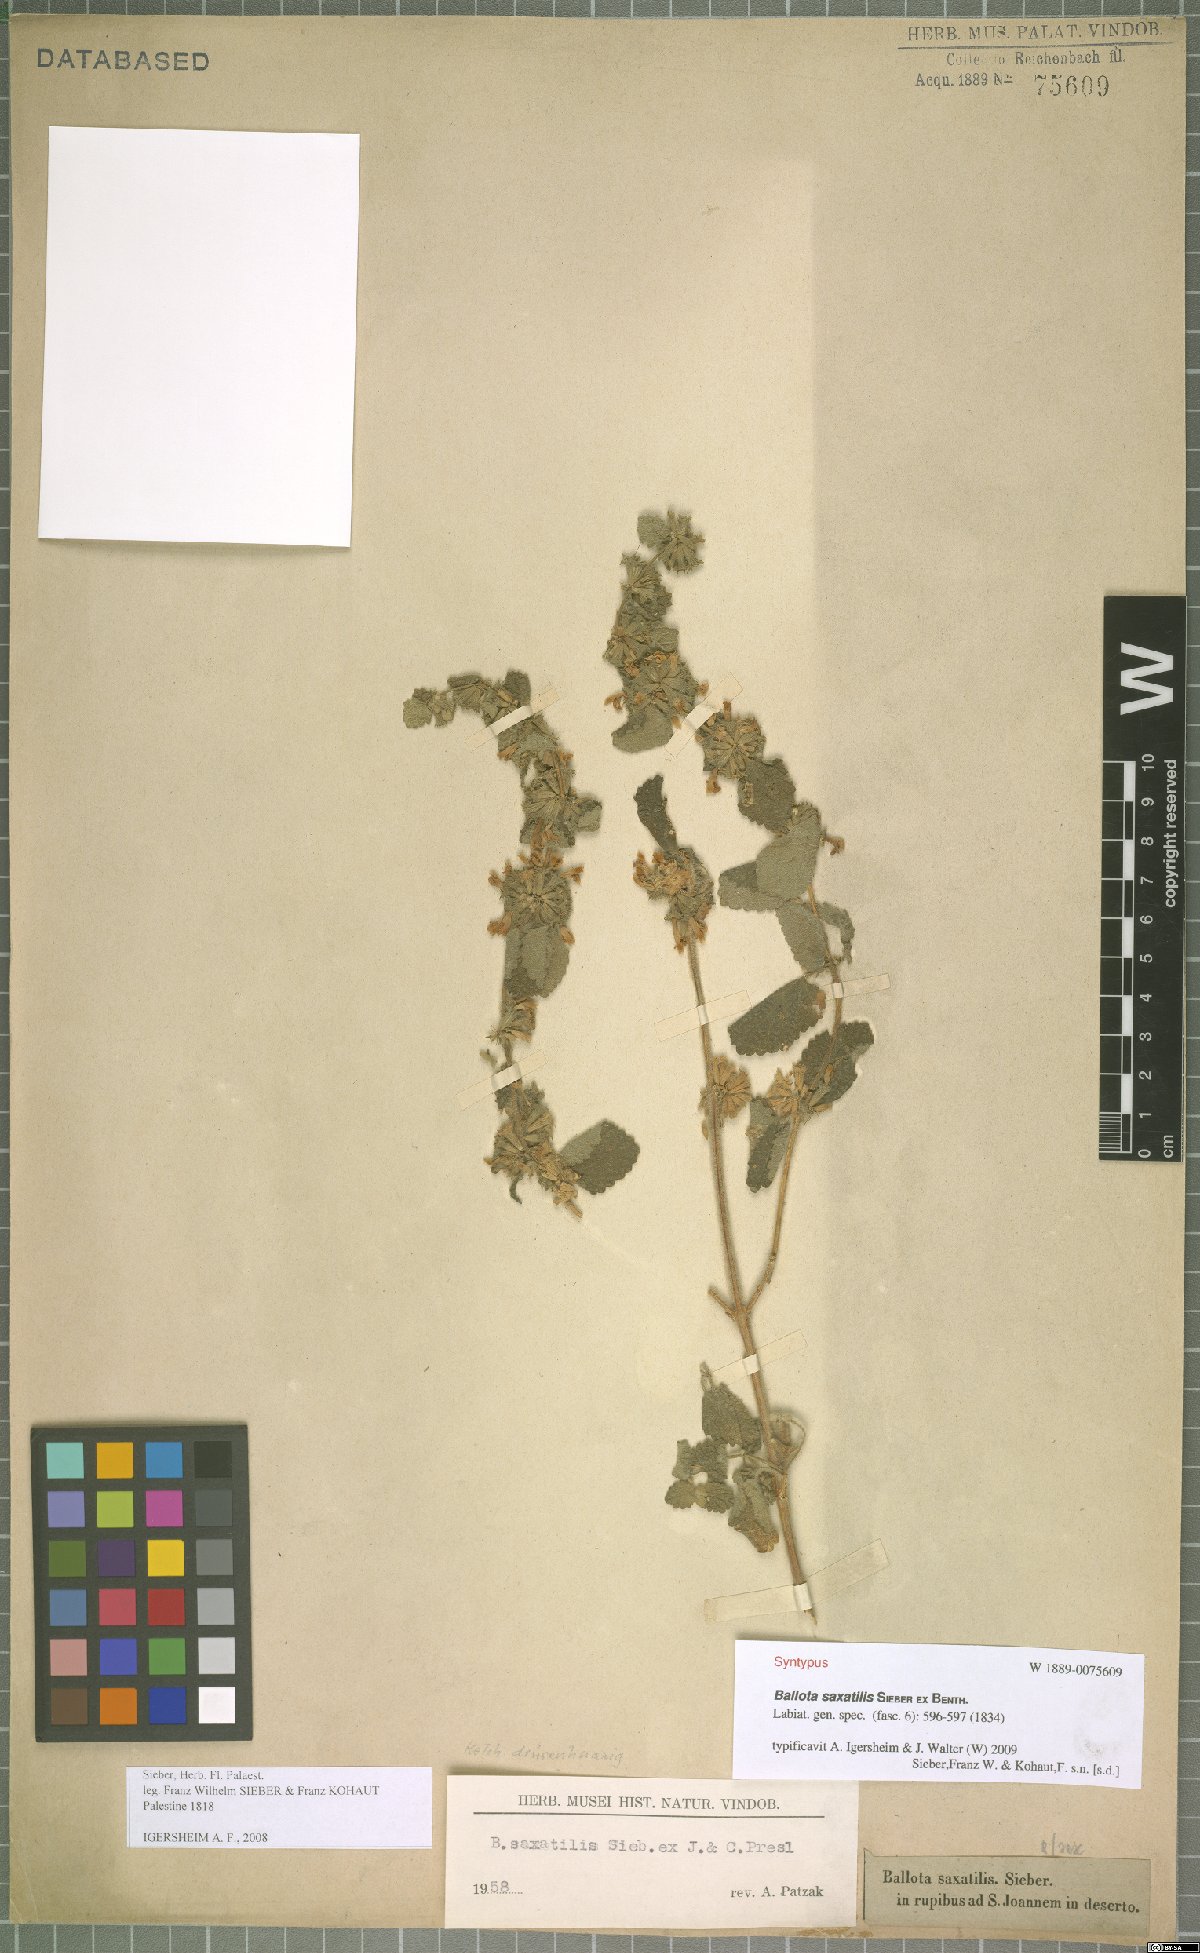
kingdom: Plantae
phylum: Tracheophyta
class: Magnoliopsida
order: Lamiales
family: Lamiaceae
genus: Ballota
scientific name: Ballota saxatilis
